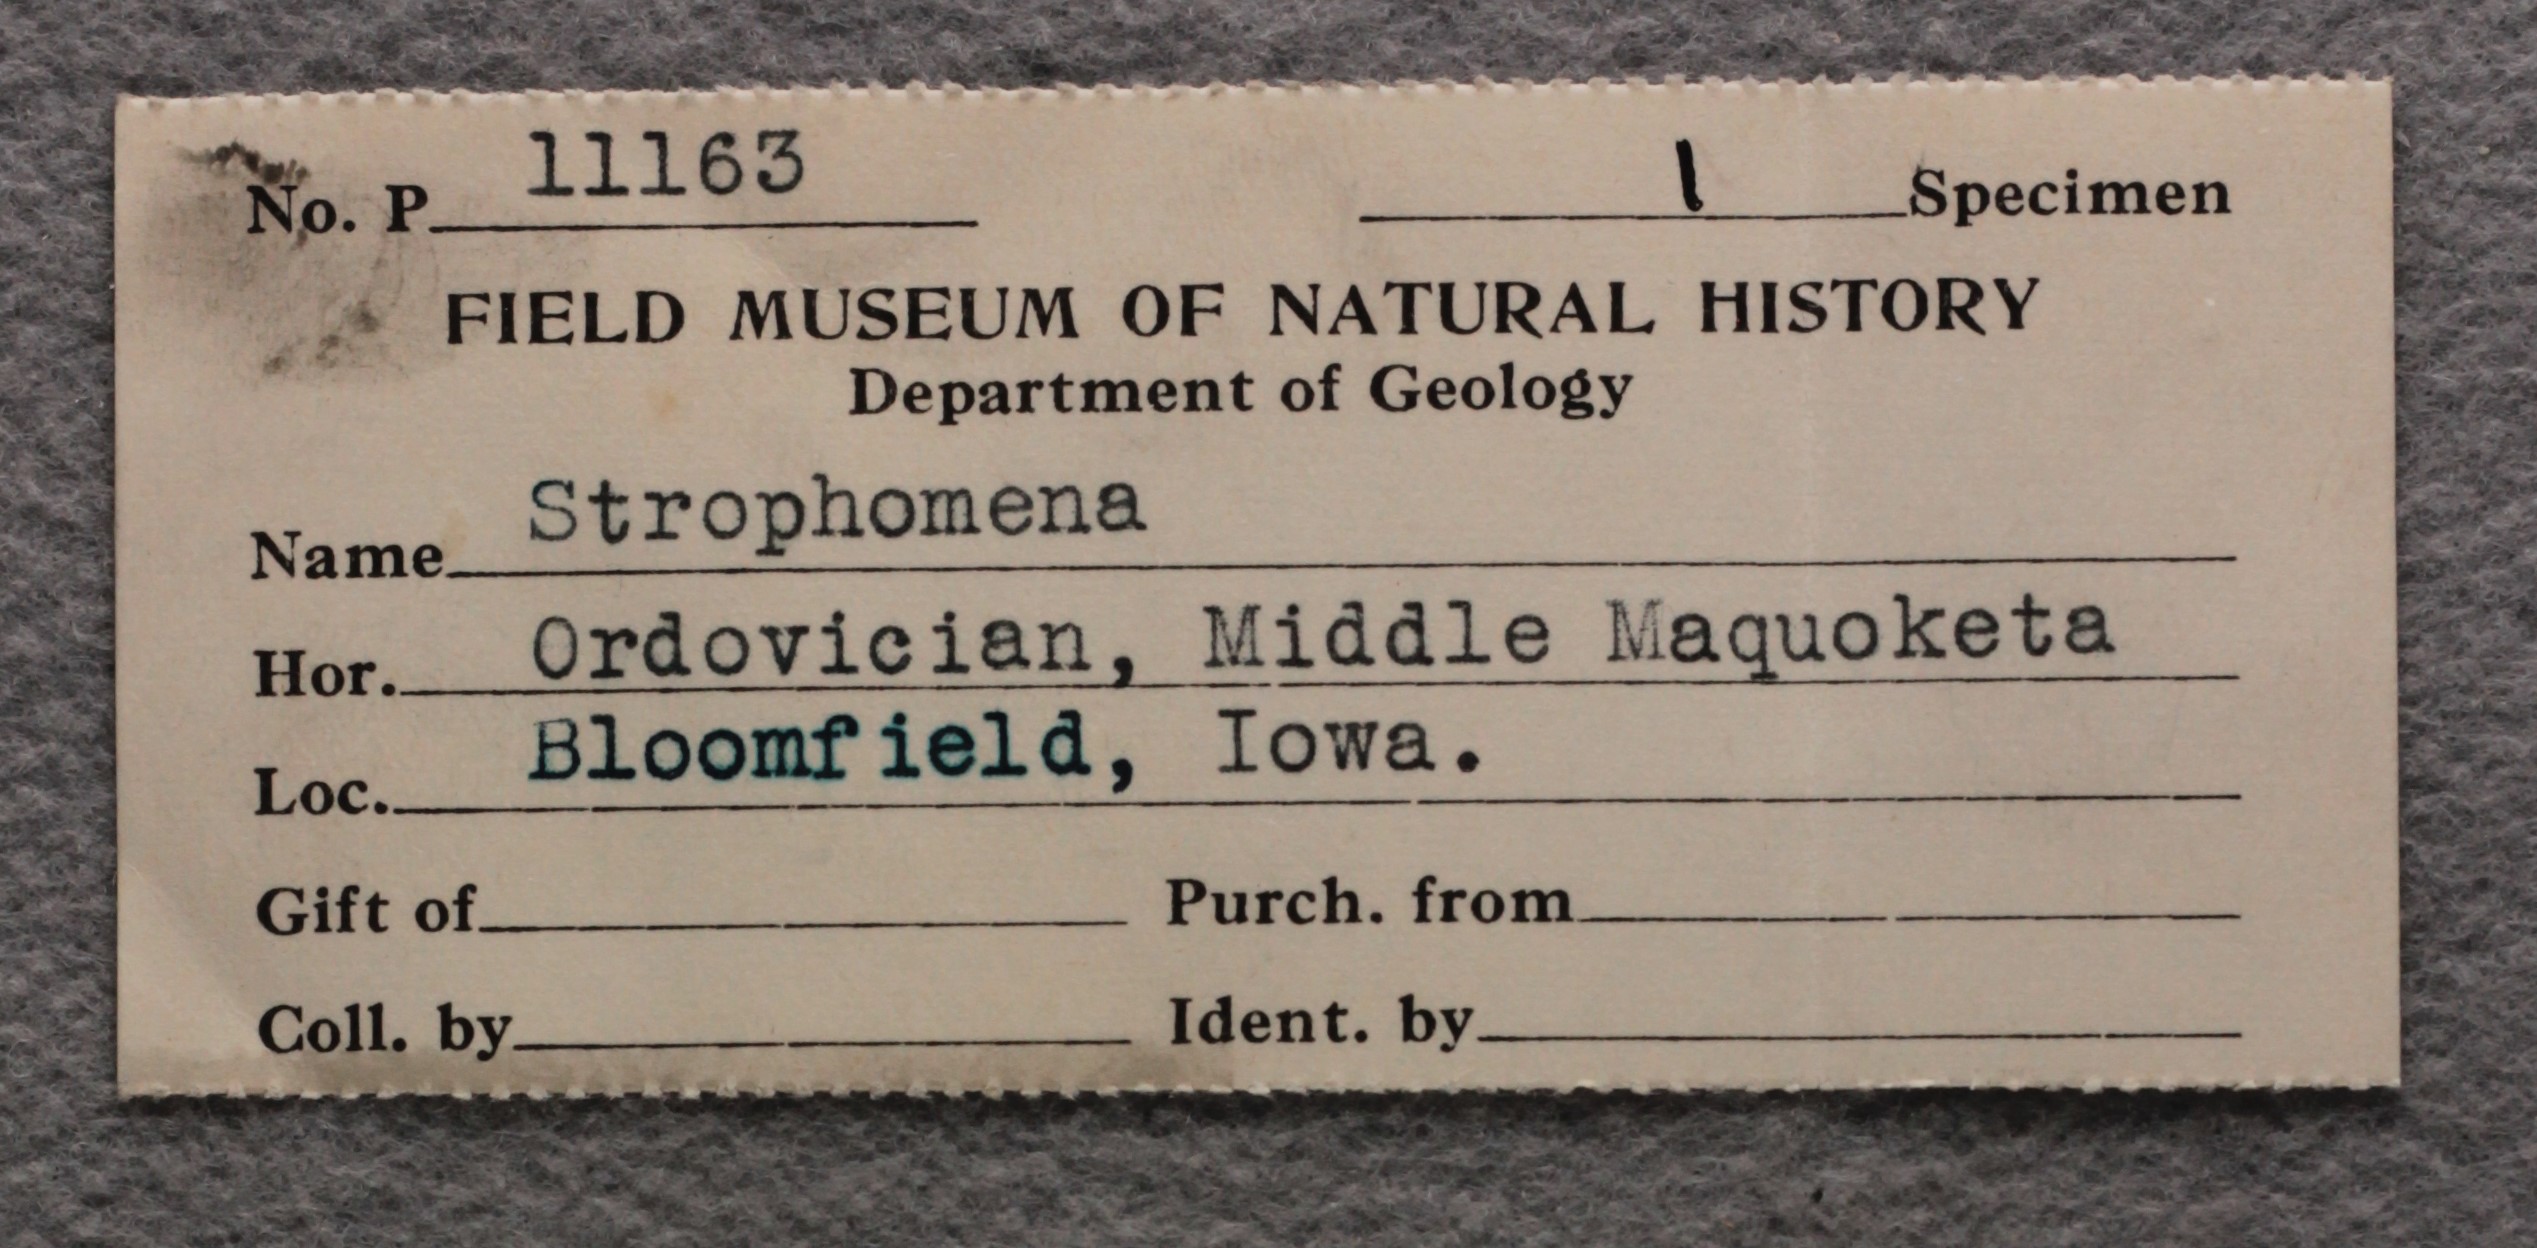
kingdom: Animalia
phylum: Brachiopoda
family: Strophomenidae
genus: Strophomena
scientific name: Strophomena
